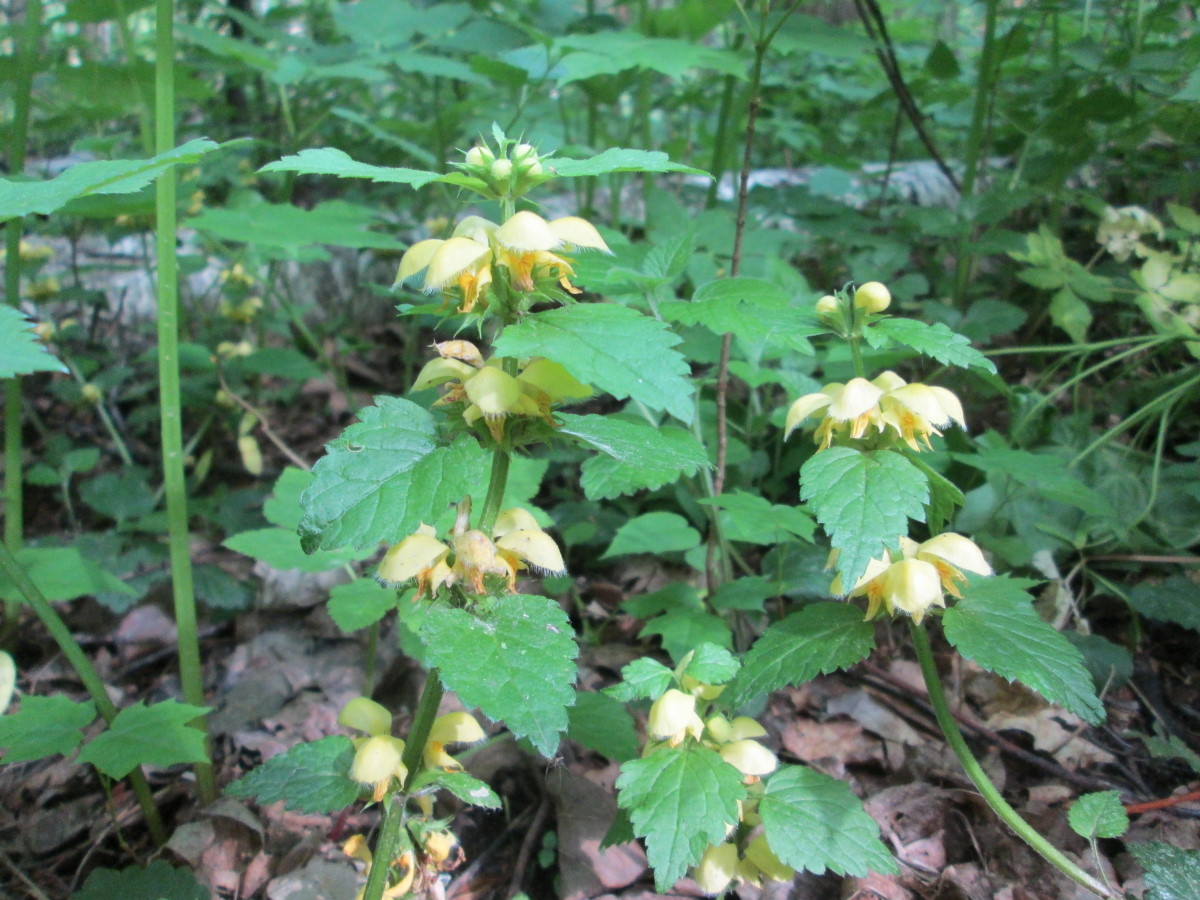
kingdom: Plantae
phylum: Tracheophyta
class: Magnoliopsida
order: Lamiales
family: Lamiaceae
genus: Lamium
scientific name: Lamium galeobdolon
